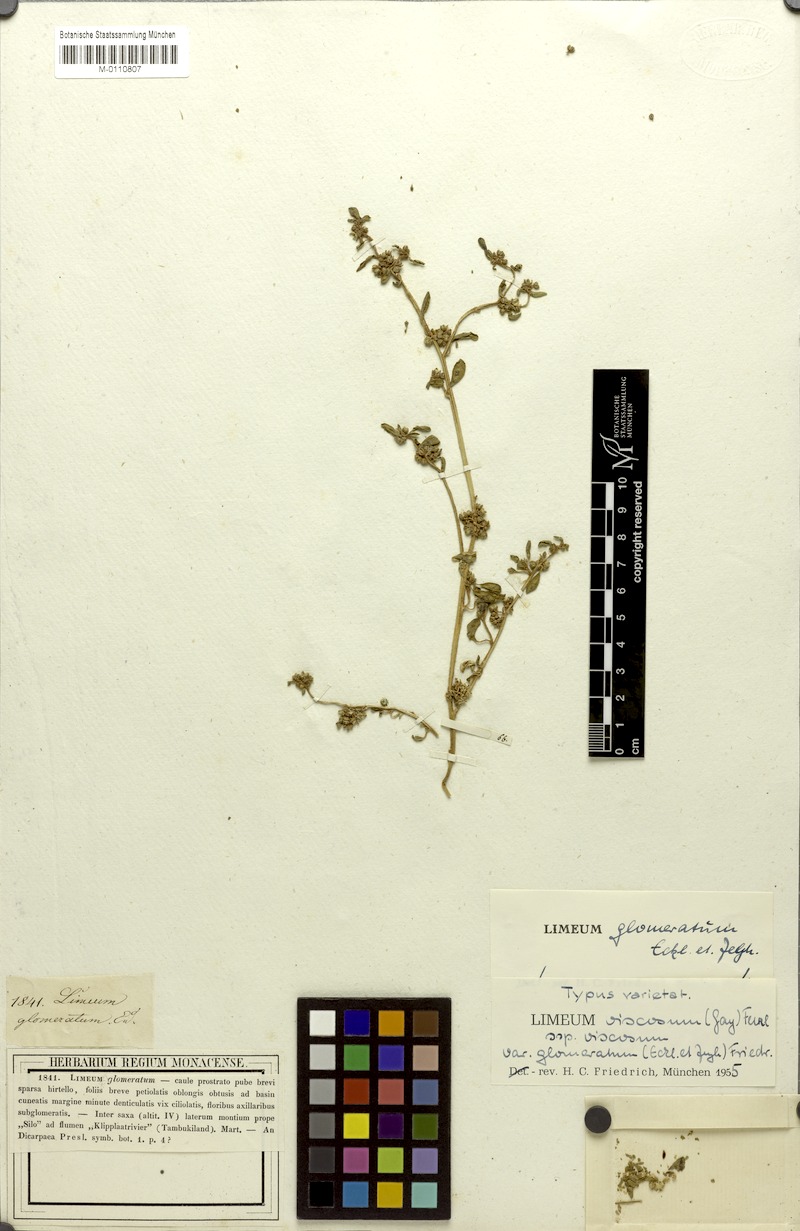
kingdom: Plantae
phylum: Tracheophyta
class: Magnoliopsida
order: Caryophyllales
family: Limeaceae
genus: Limeum
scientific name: Limeum viscosum
